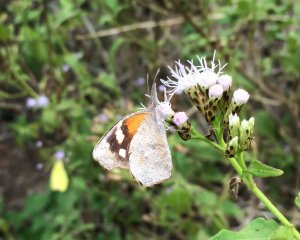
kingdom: Animalia
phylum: Arthropoda
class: Insecta
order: Lepidoptera
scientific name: Lepidoptera
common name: Butterflies
